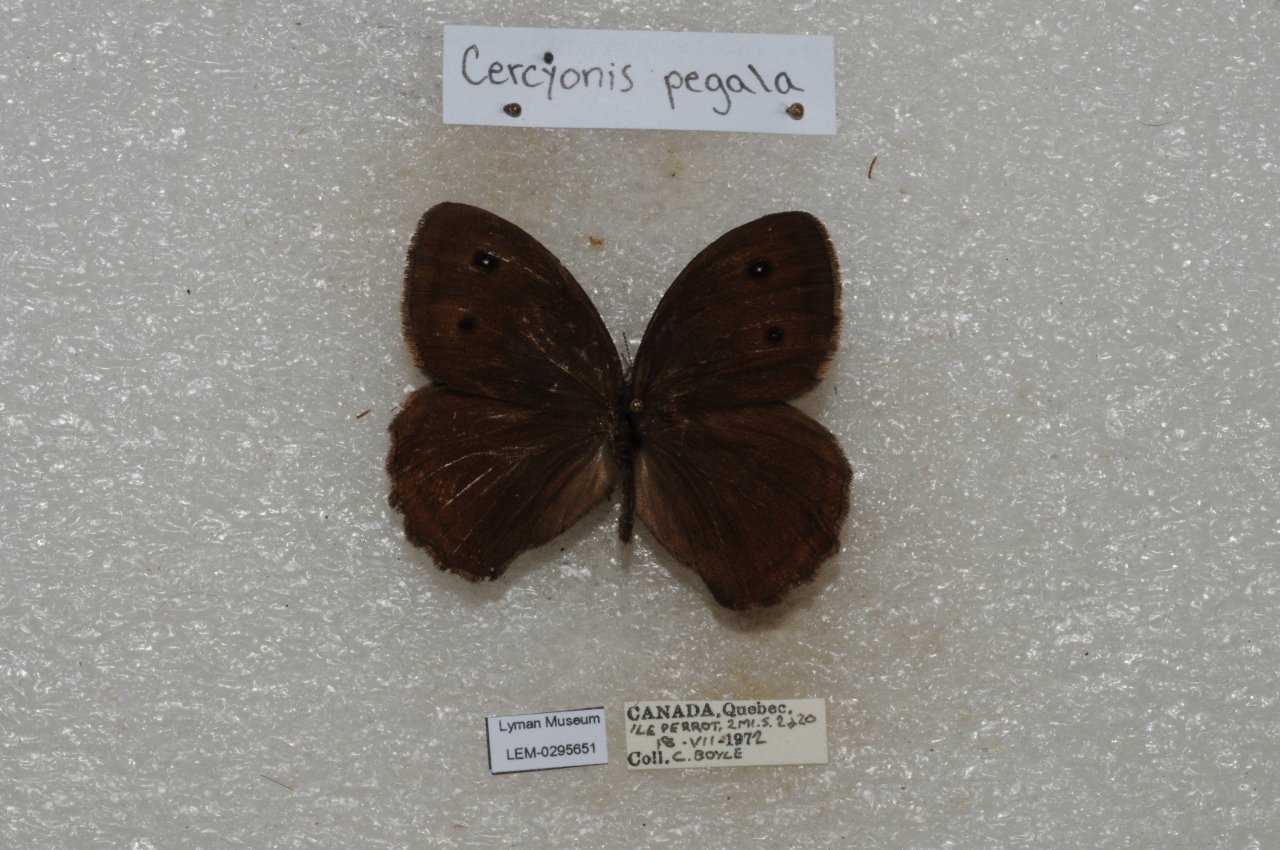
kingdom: Animalia
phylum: Arthropoda
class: Insecta
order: Lepidoptera
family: Nymphalidae
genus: Cercyonis
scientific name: Cercyonis pegala
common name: Common Wood-Nymph
